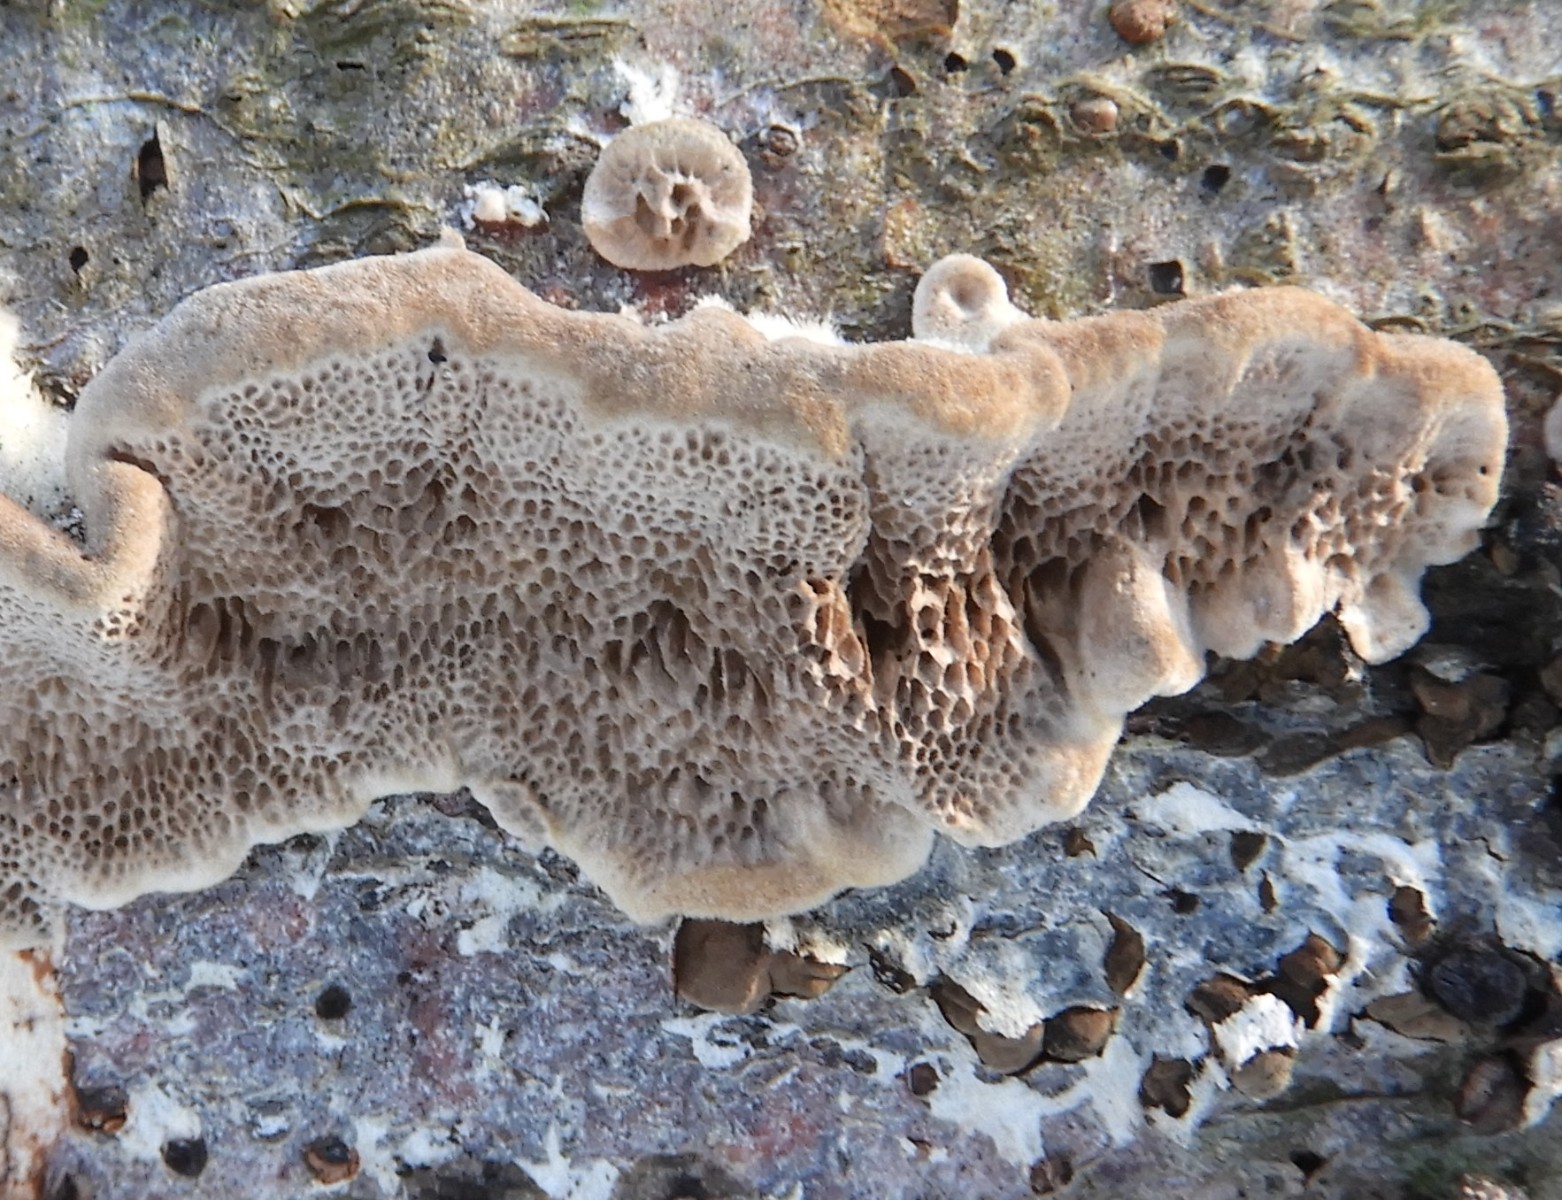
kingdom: Fungi
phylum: Basidiomycota
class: Agaricomycetes
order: Polyporales
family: Polyporaceae
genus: Trametes
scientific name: Trametes hirsuta
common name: håret læderporesvamp
